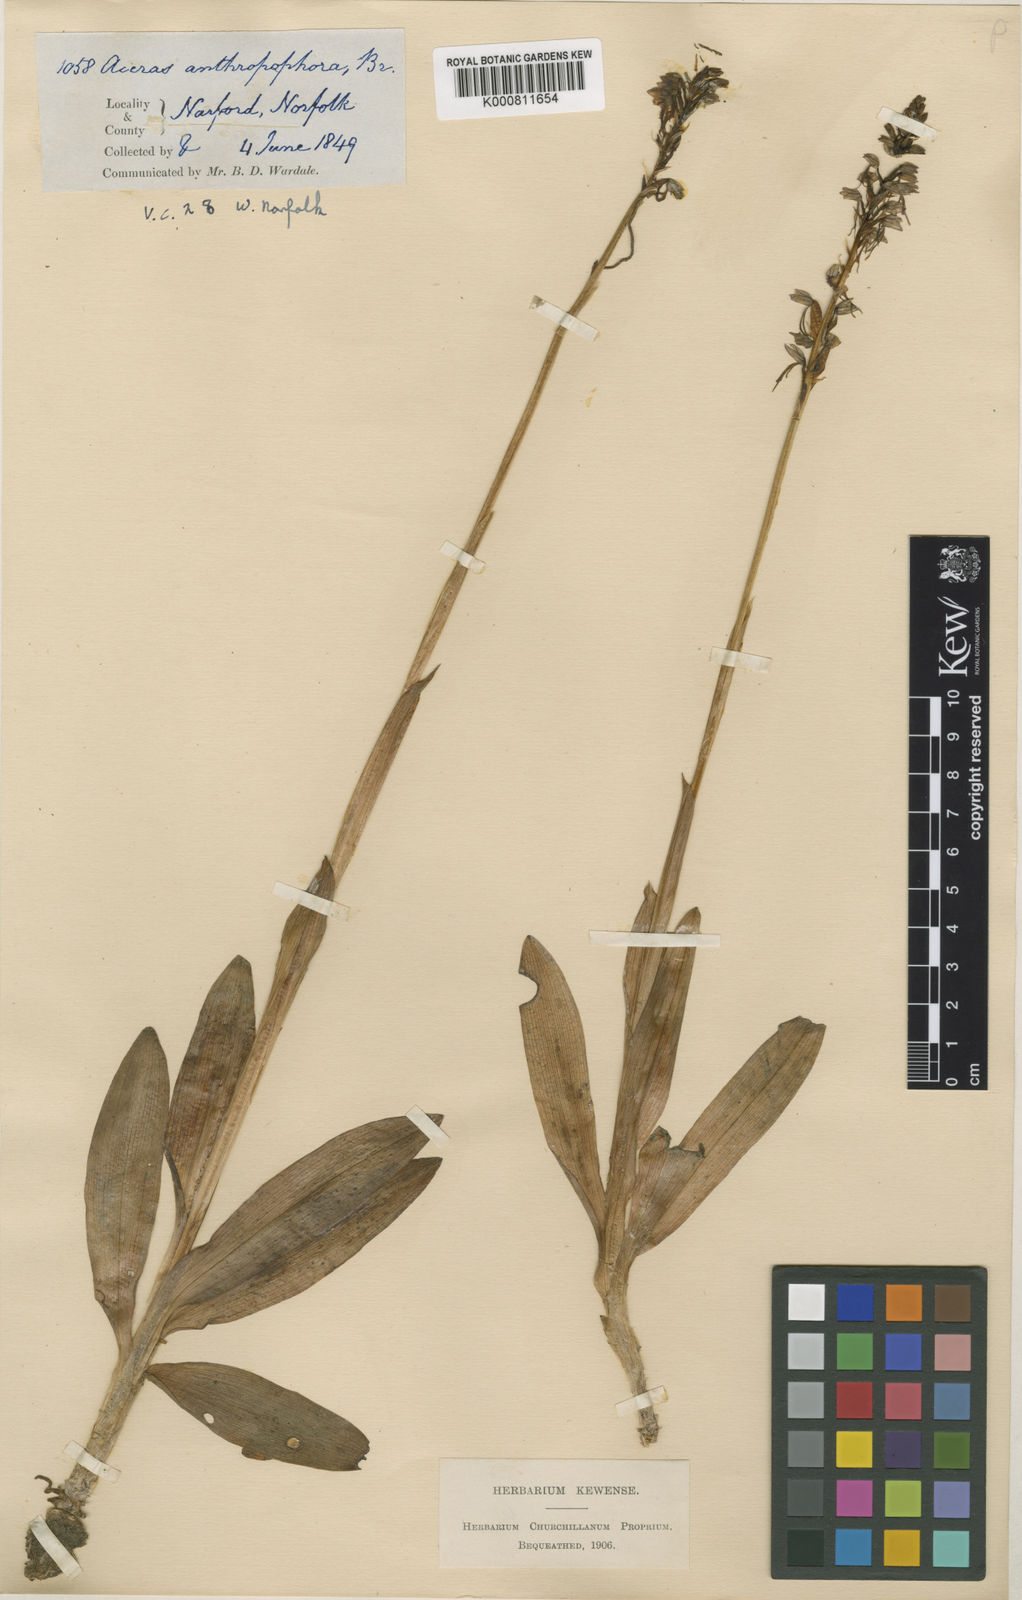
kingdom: Plantae
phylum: Tracheophyta
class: Liliopsida
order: Asparagales
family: Orchidaceae
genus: Orchis
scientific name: Orchis
